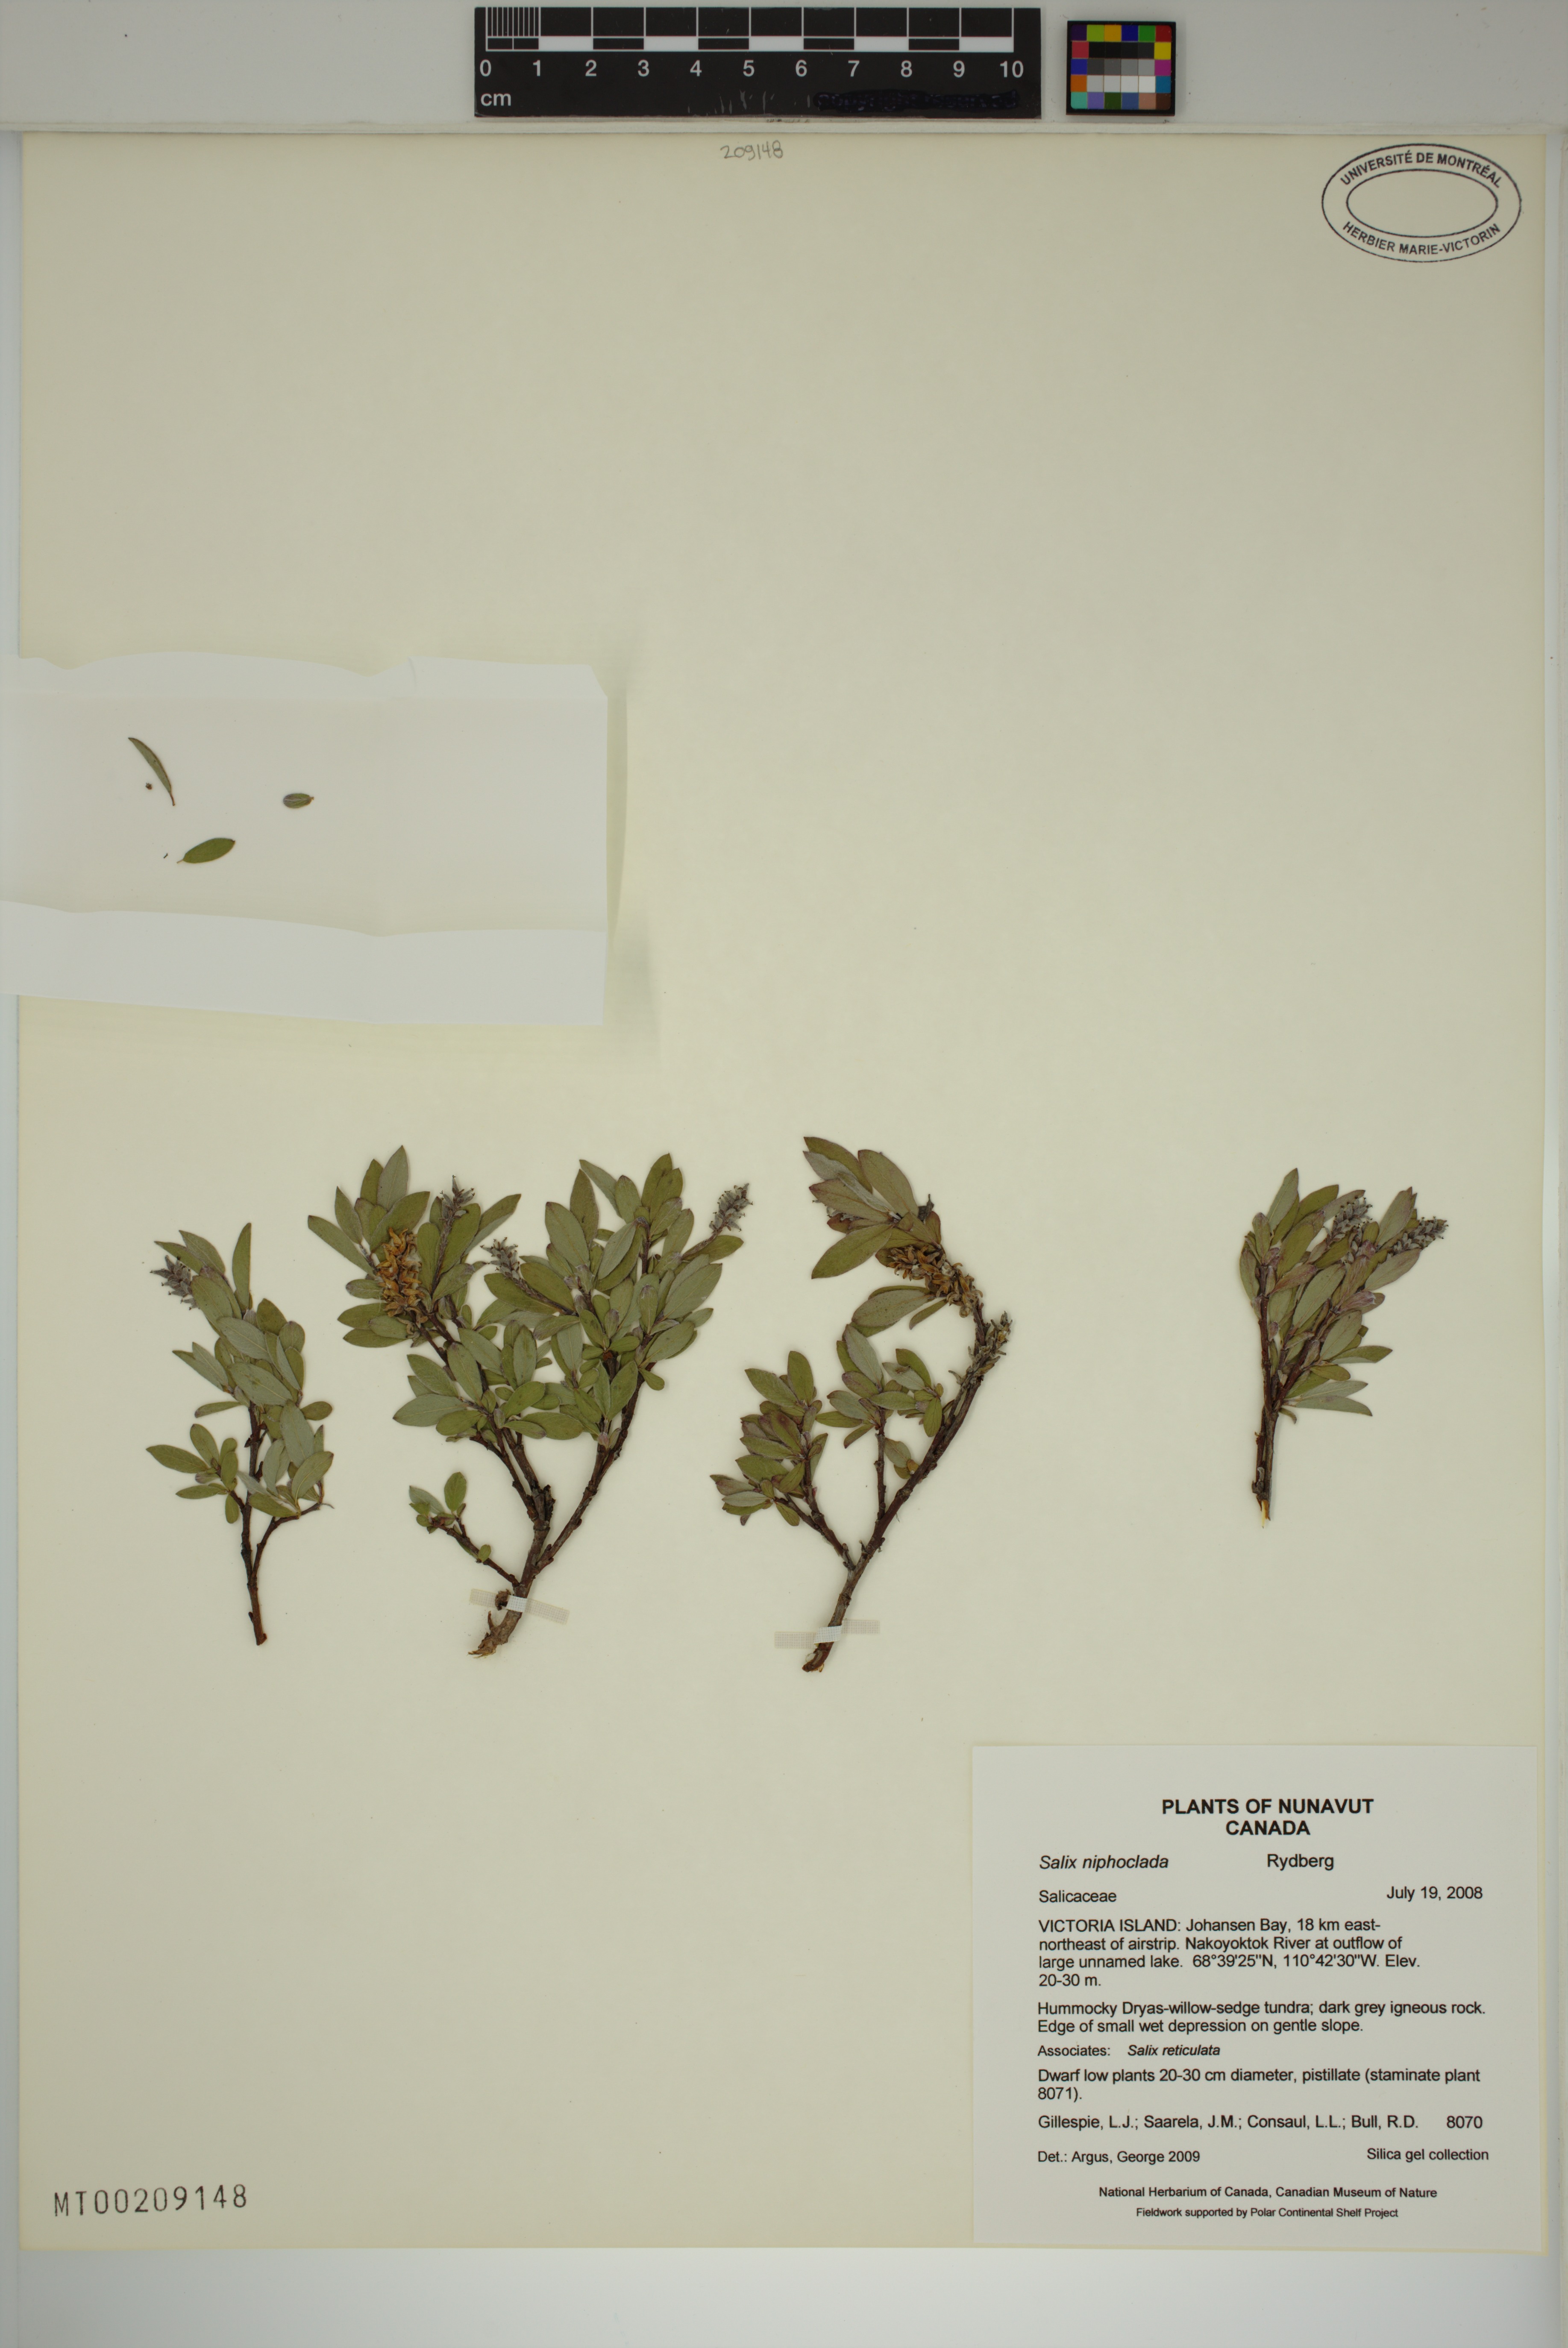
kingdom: Plantae
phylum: Tracheophyta
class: Magnoliopsida
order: Malpighiales
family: Salicaceae
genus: Salix
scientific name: Salix niphoclada
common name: Barren-ground willow
